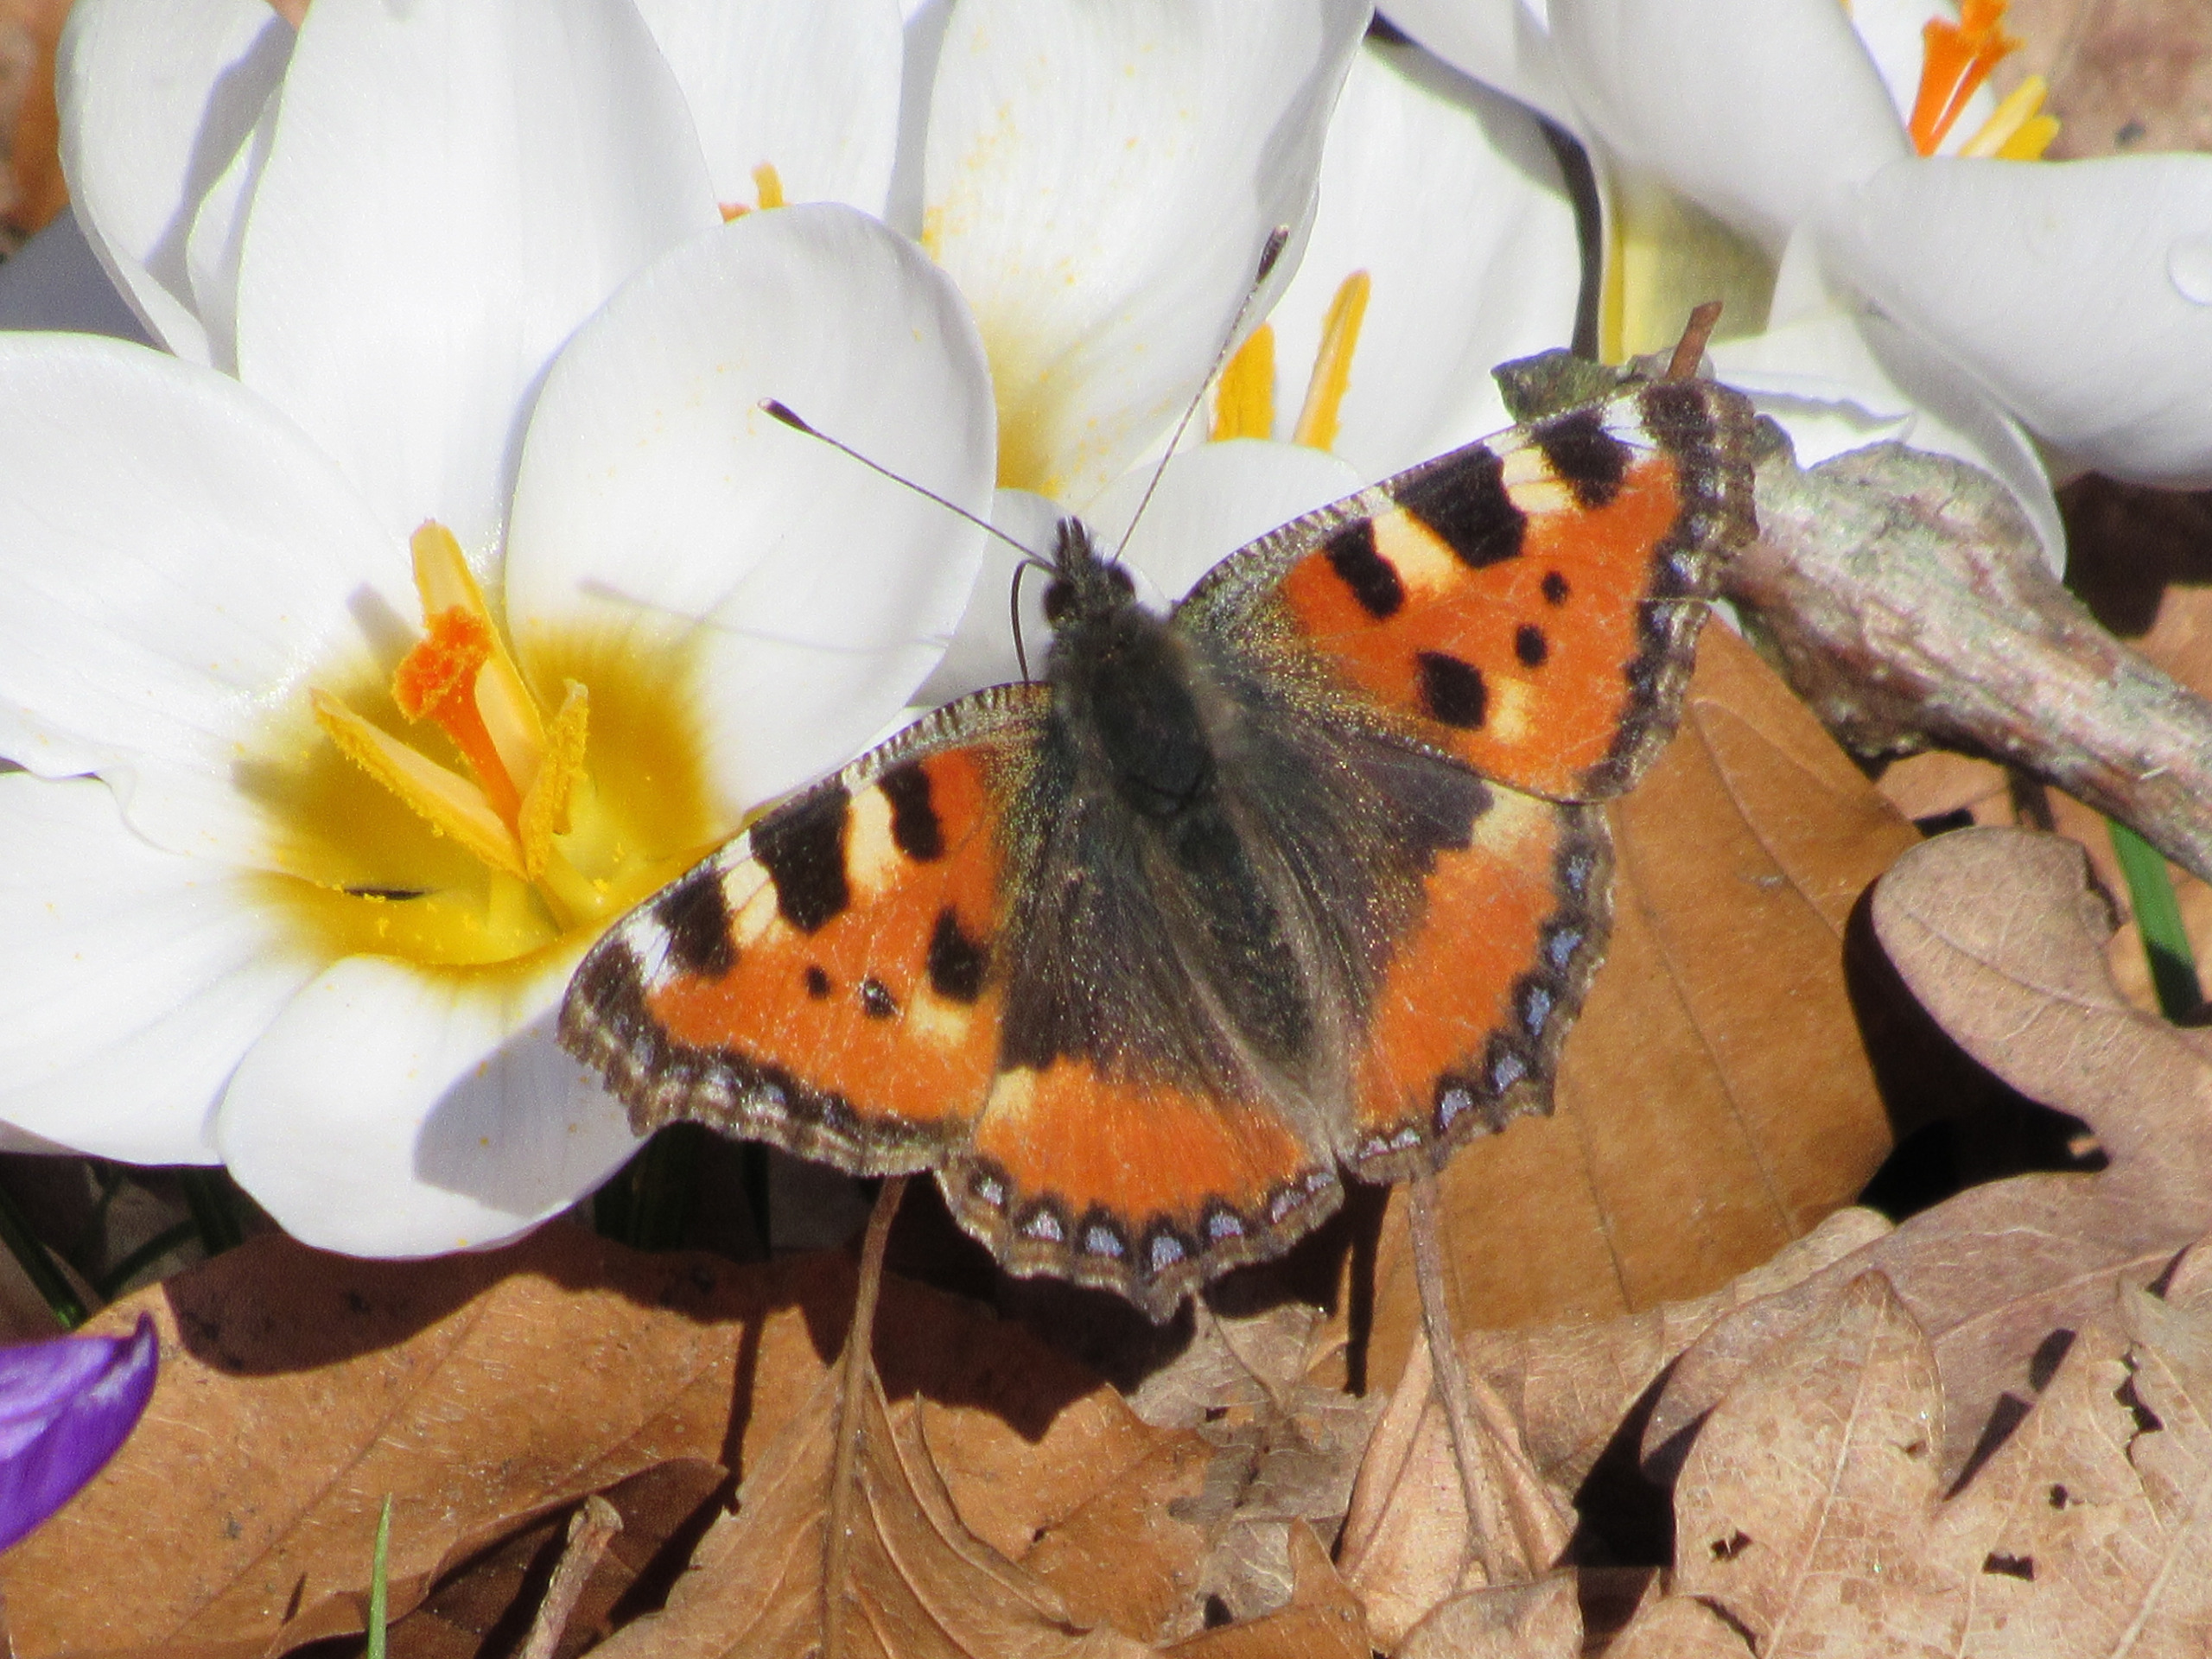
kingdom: Animalia
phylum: Arthropoda
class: Insecta
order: Lepidoptera
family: Nymphalidae
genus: Aglais
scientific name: Aglais urticae
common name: Nældens takvinge
